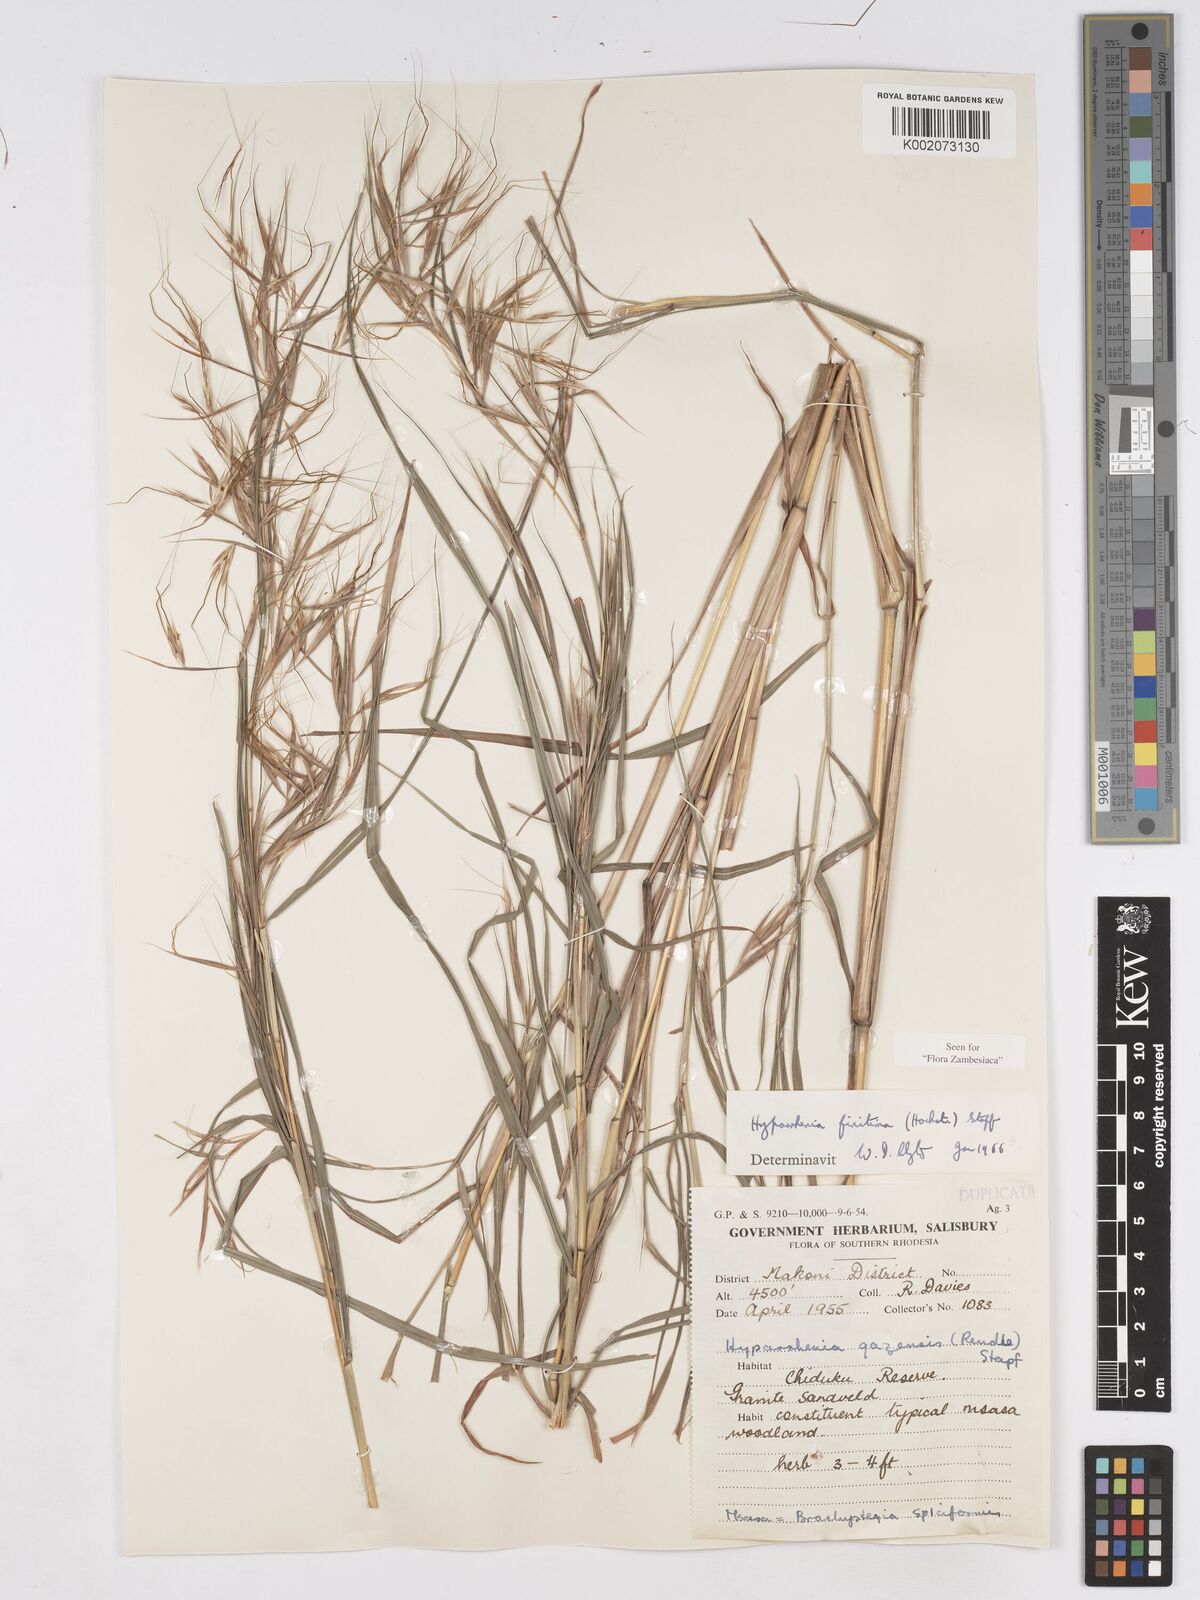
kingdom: Plantae
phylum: Tracheophyta
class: Liliopsida
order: Poales
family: Poaceae
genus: Hyparrhenia
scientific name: Hyparrhenia finitima
